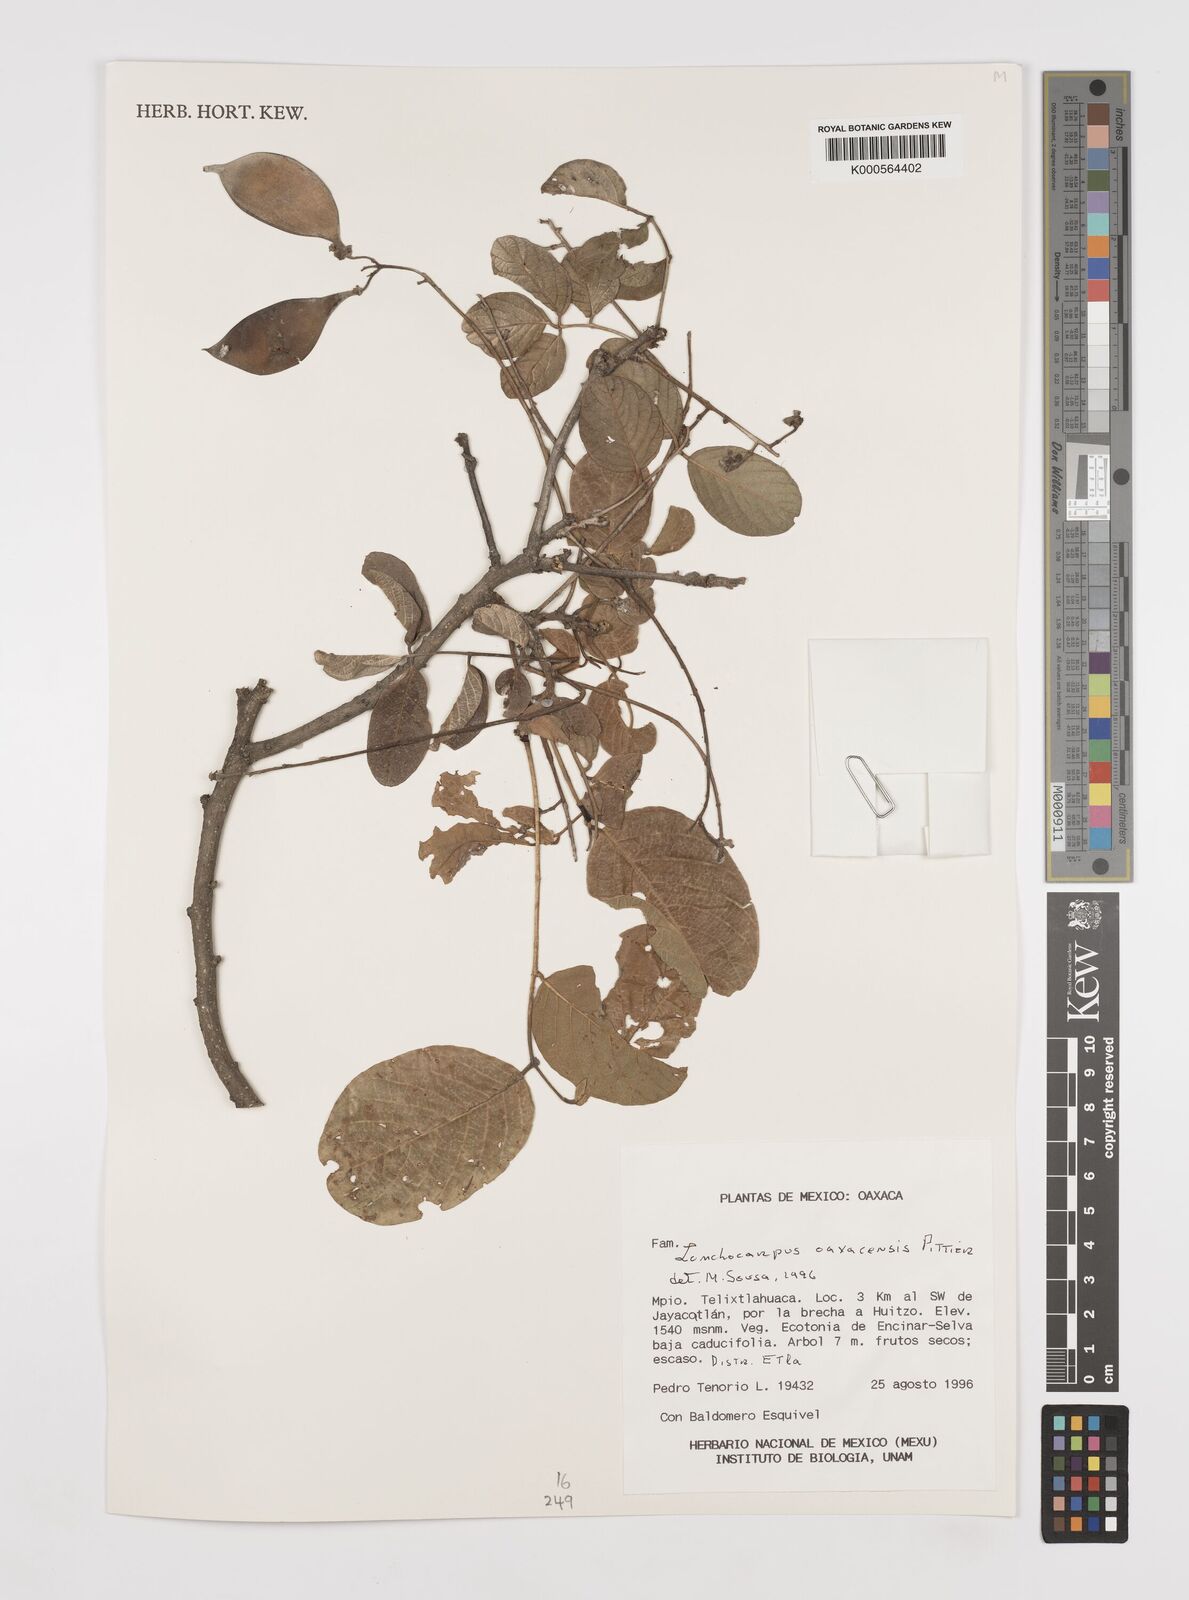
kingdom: Plantae
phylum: Tracheophyta
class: Magnoliopsida
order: Fabales
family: Fabaceae
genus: Lonchocarpus
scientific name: Lonchocarpus oaxacensis
